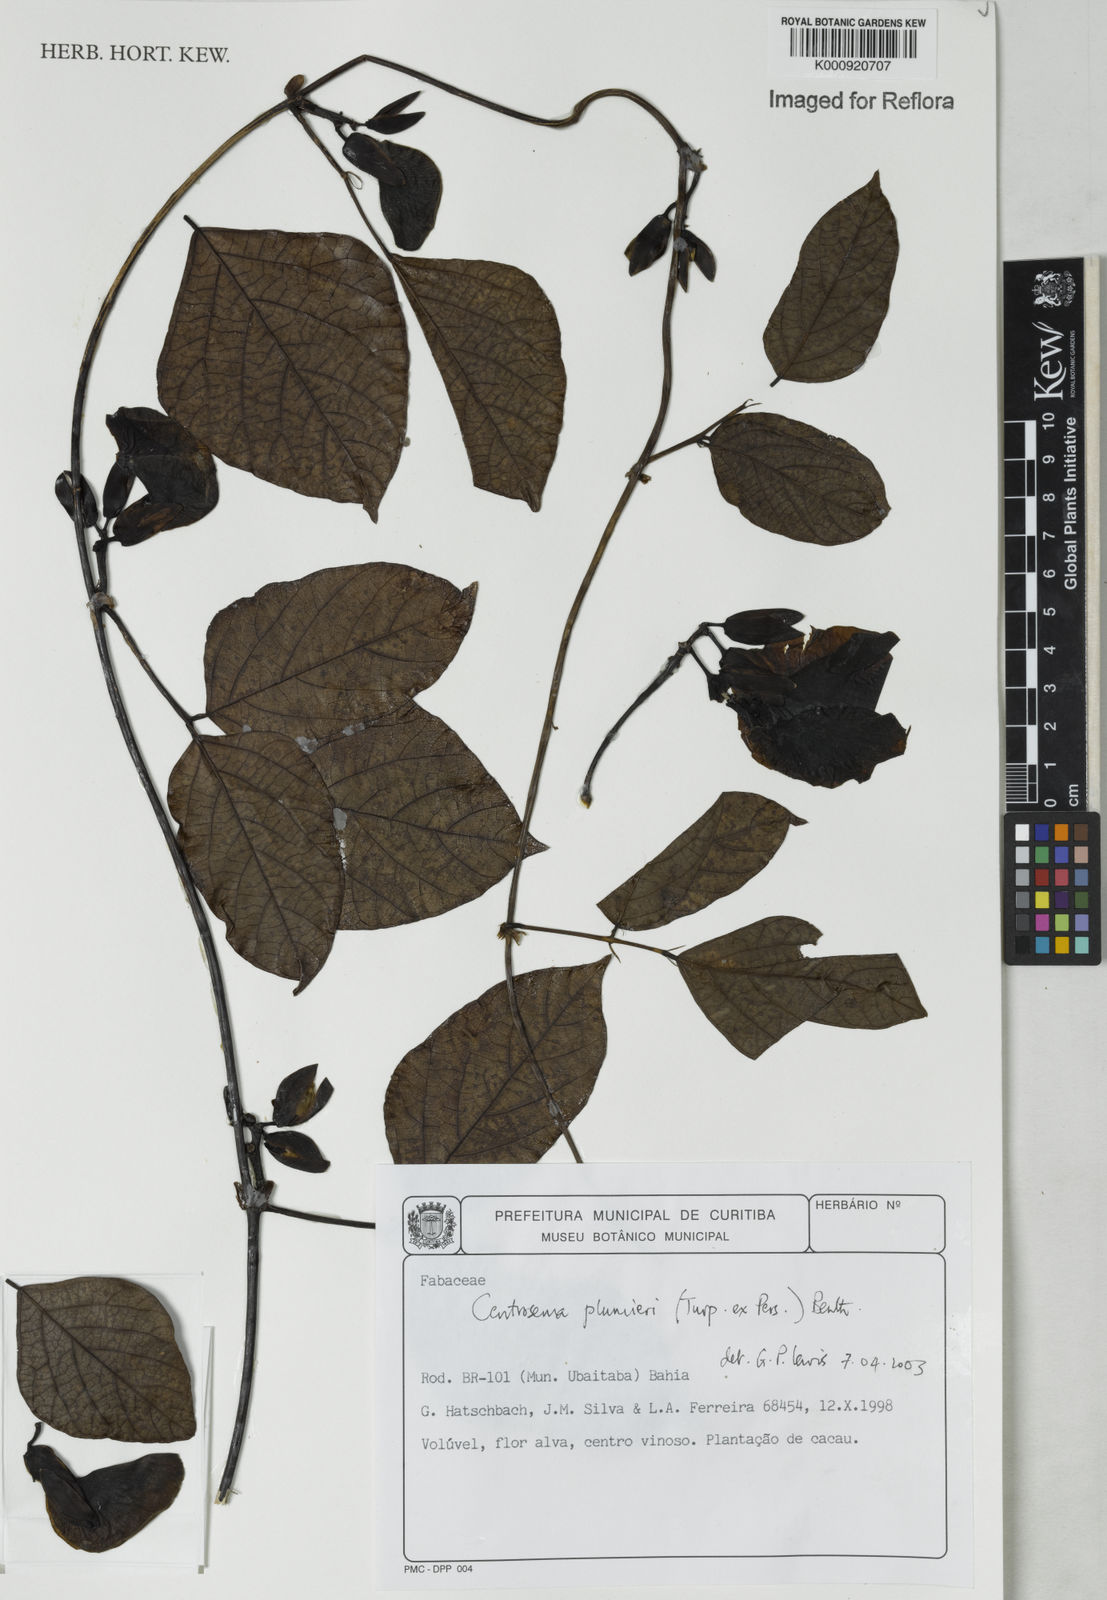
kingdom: Plantae
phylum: Tracheophyta
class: Magnoliopsida
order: Fabales
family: Fabaceae
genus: Centrosema
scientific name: Centrosema plumieri
